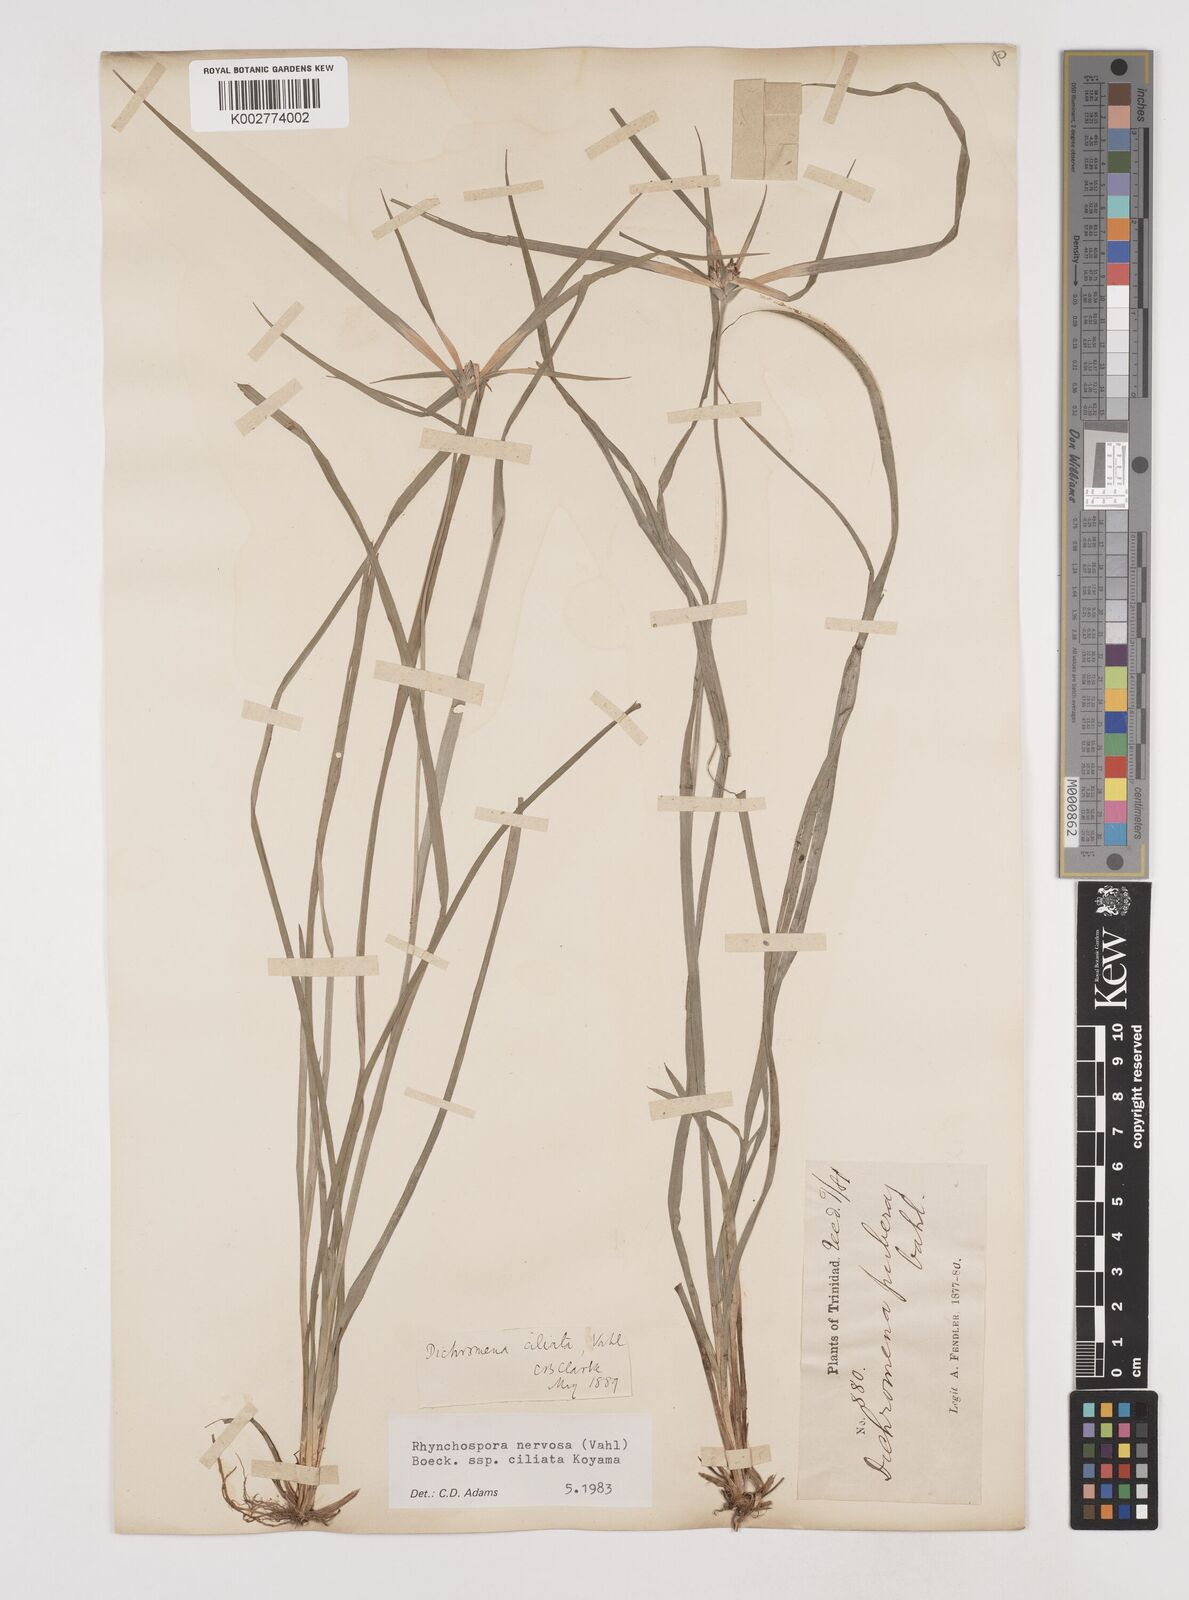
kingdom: Plantae
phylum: Tracheophyta
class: Liliopsida
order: Poales
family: Cyperaceae
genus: Rhynchospora
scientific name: Rhynchospora pura
